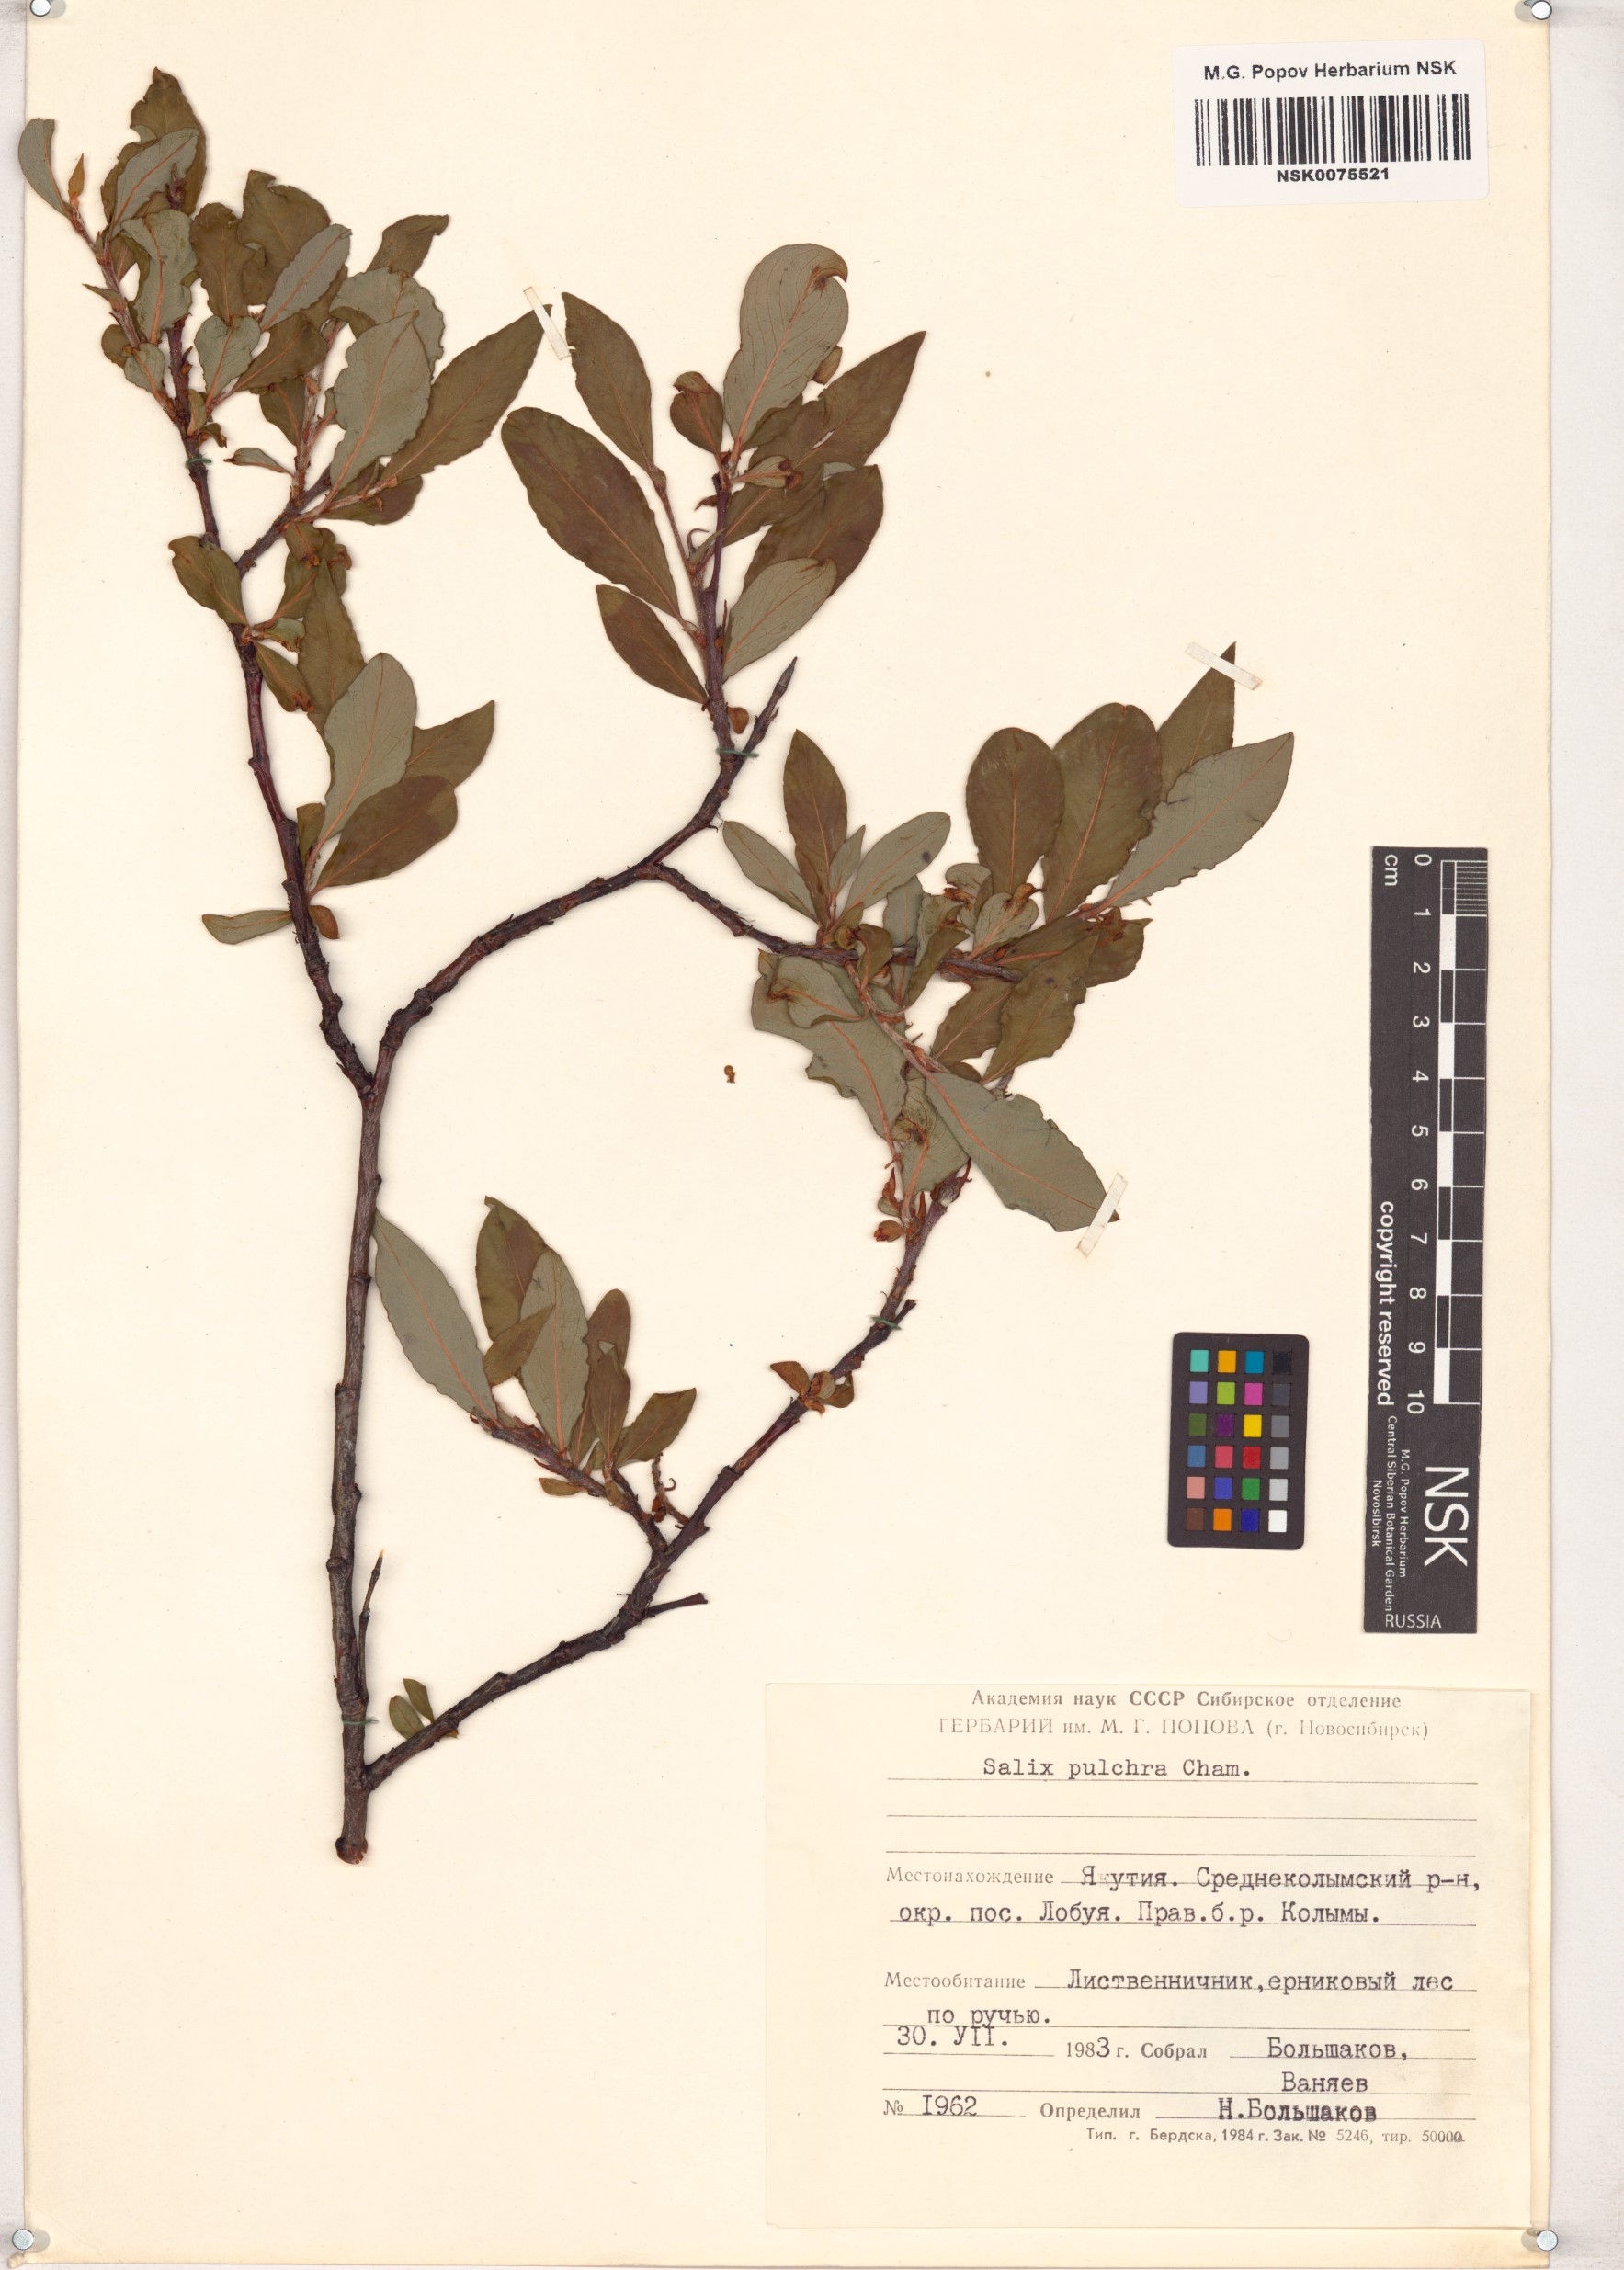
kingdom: Plantae
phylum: Tracheophyta
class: Magnoliopsida
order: Malpighiales
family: Salicaceae
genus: Salix
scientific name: Salix pulchra
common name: Diamond-leaved willow
